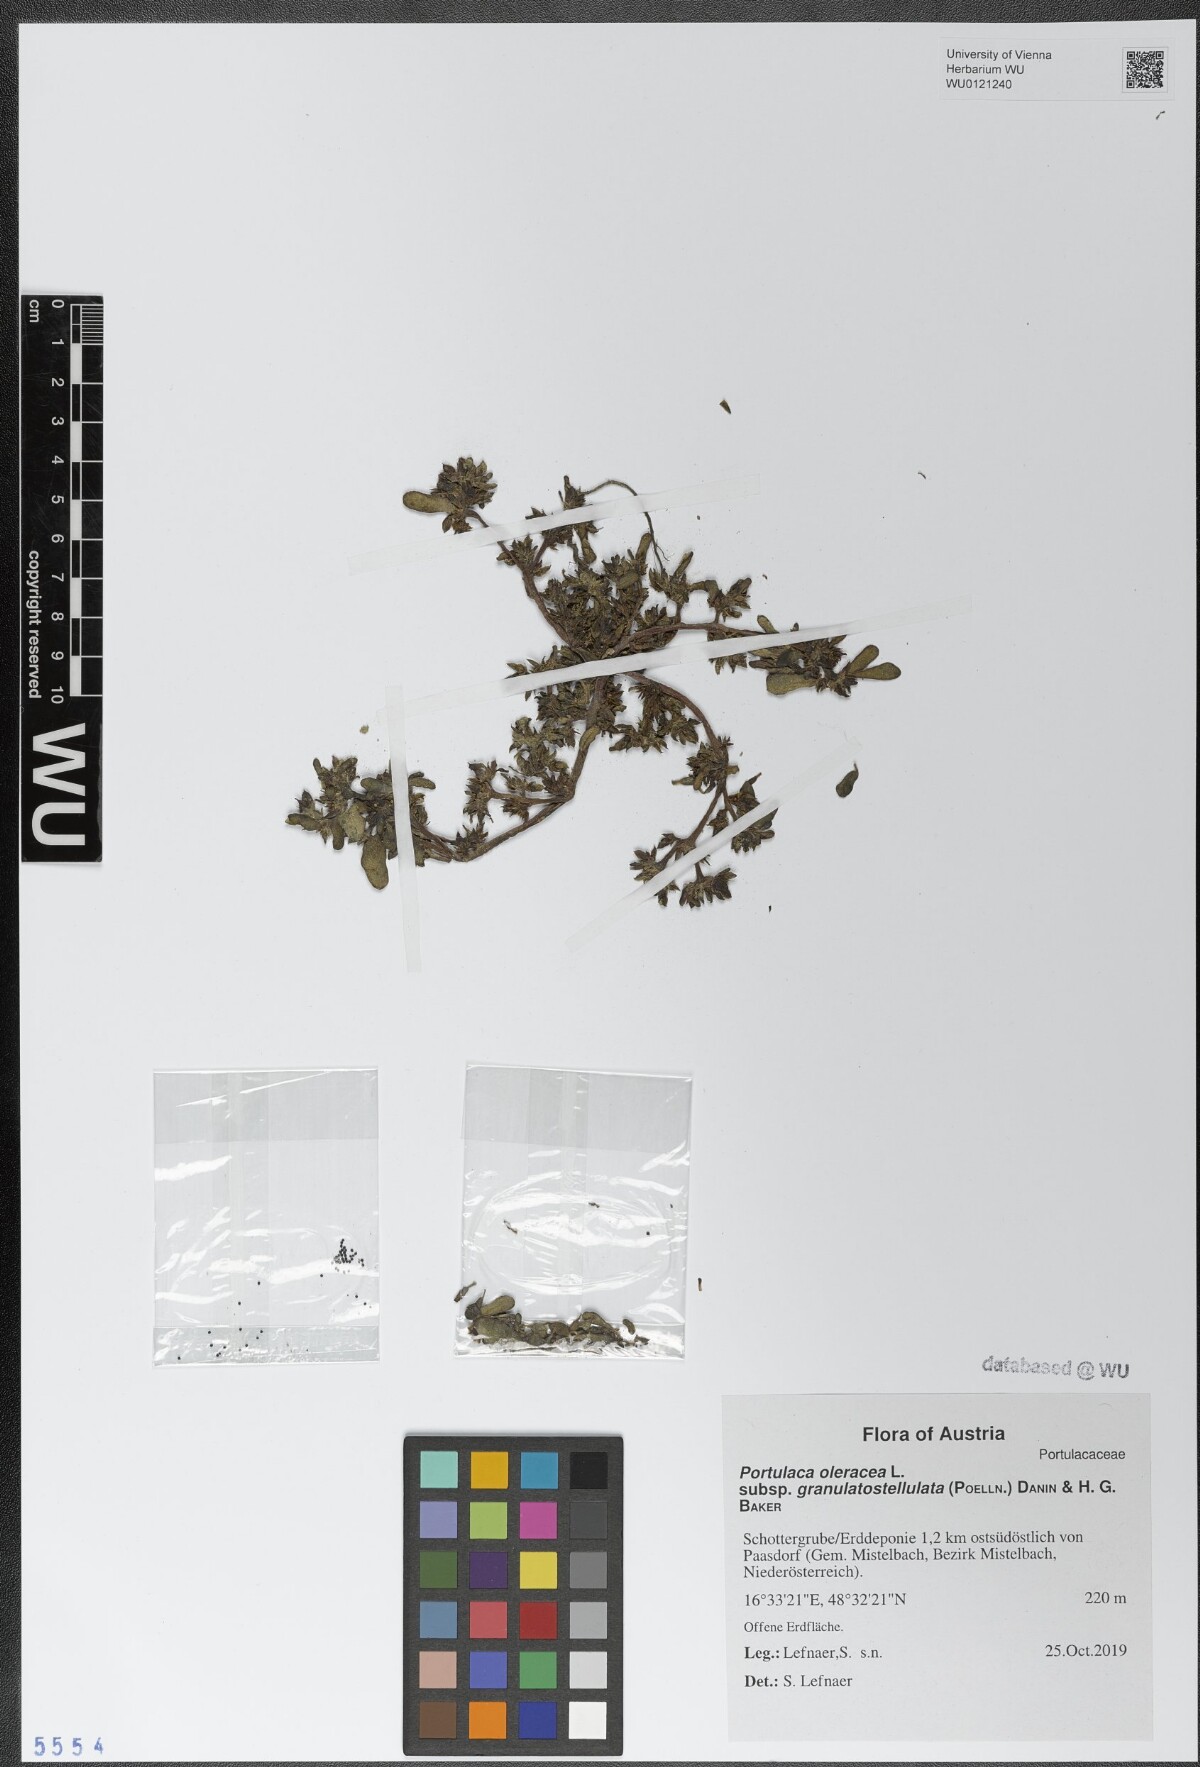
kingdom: Plantae
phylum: Tracheophyta
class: Magnoliopsida
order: Caryophyllales
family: Portulacaceae
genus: Portulaca
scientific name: Portulaca granulatostellulata
